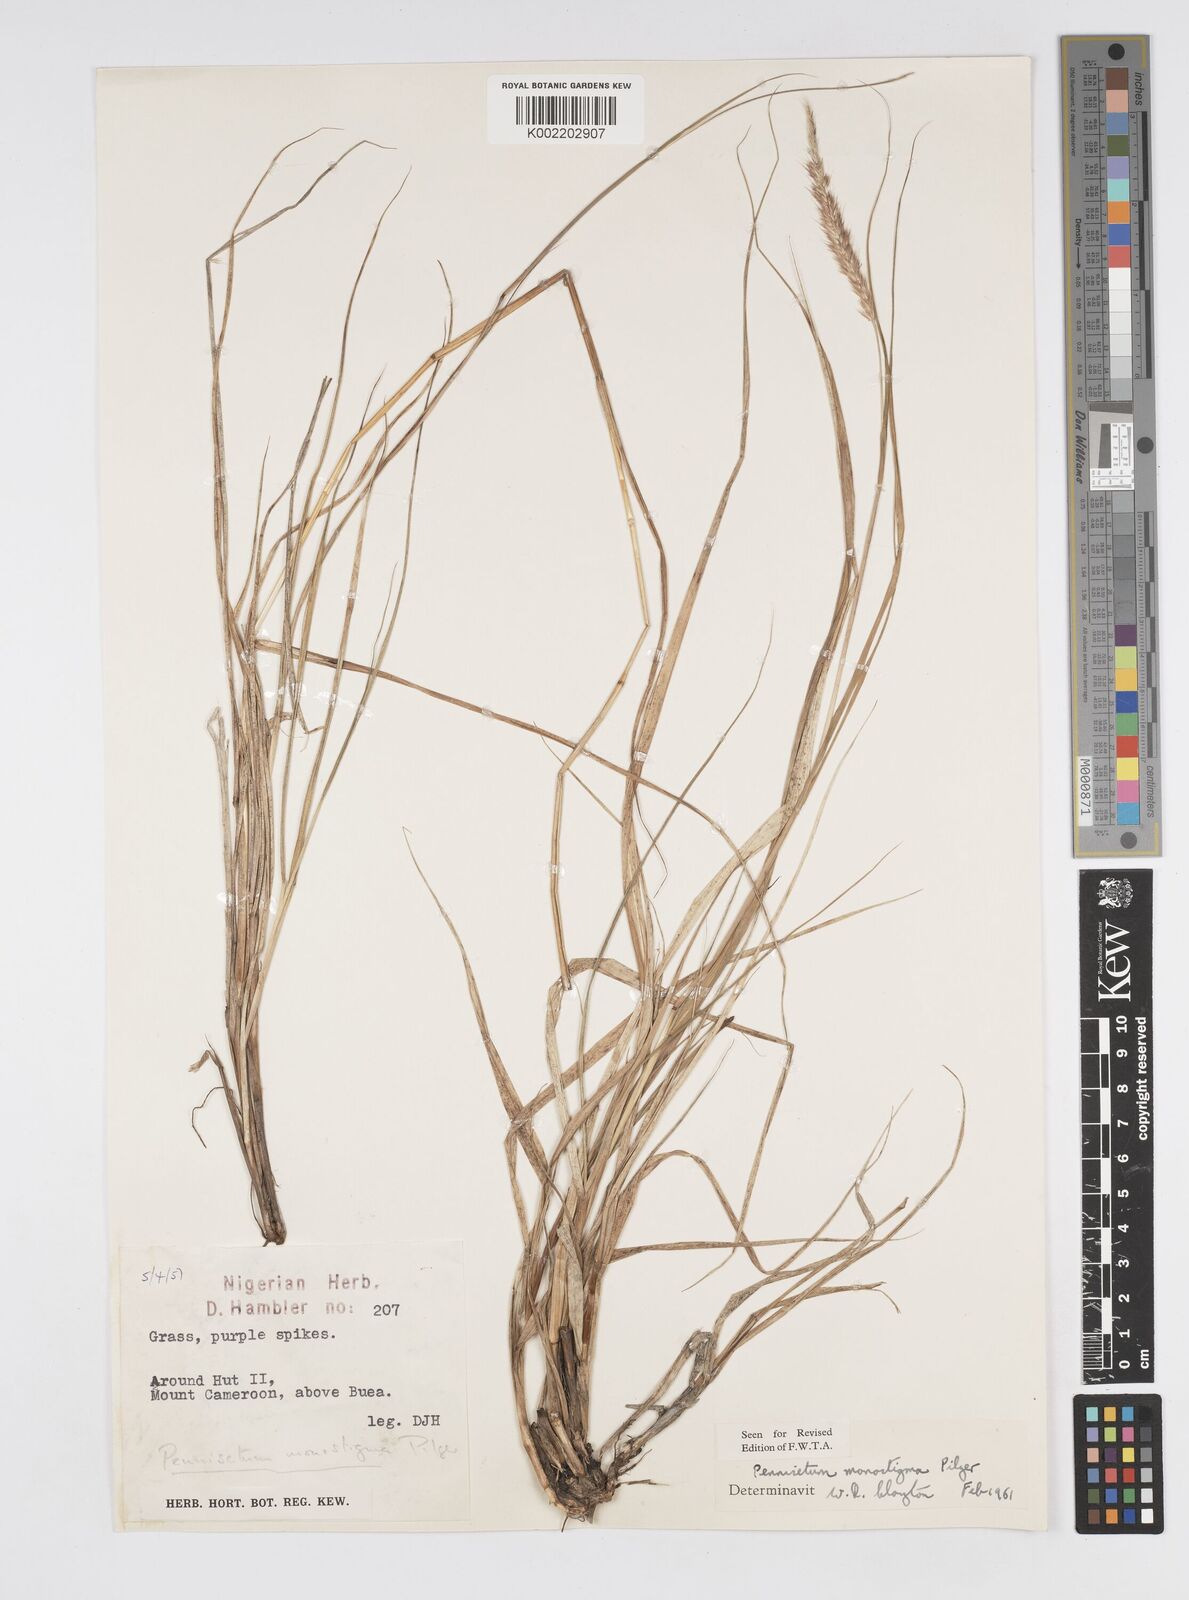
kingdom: Plantae
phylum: Tracheophyta
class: Liliopsida
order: Poales
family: Poaceae
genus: Cenchrus
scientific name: Cenchrus monostigma
